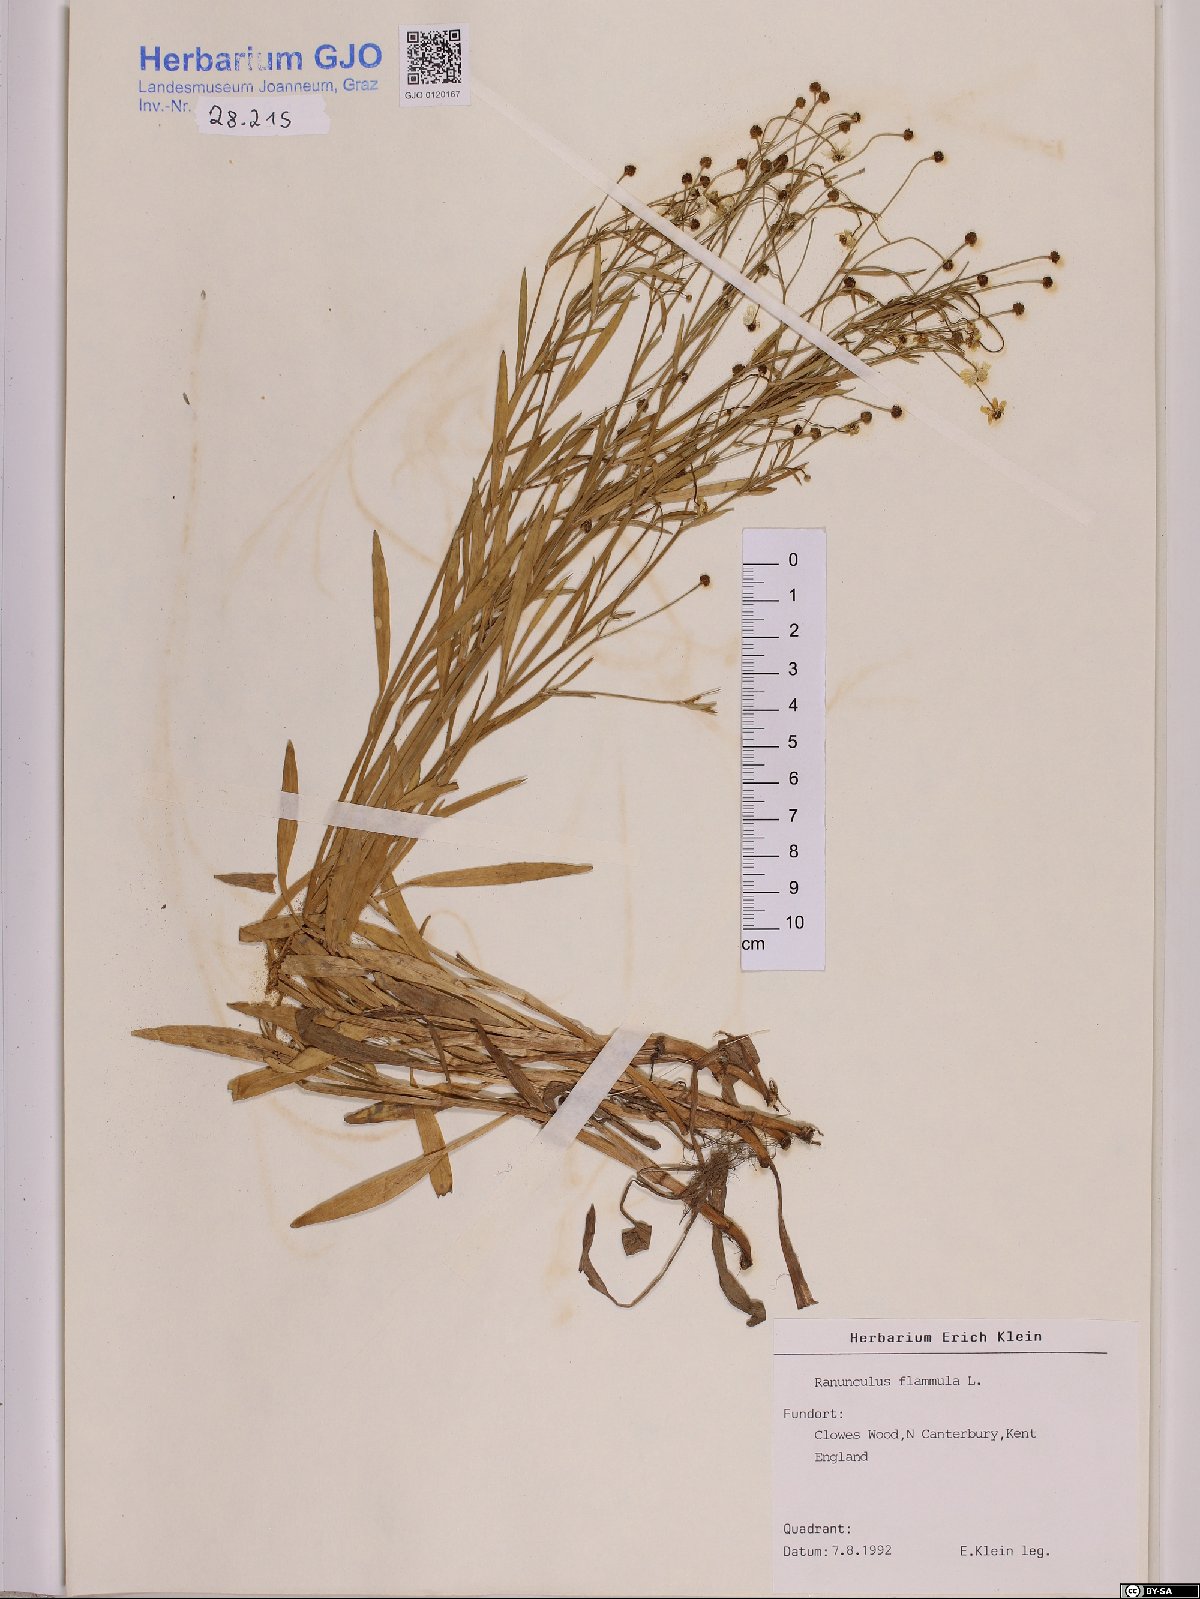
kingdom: Plantae
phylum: Tracheophyta
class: Magnoliopsida
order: Ranunculales
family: Ranunculaceae
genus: Ranunculus
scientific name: Ranunculus flammula
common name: Lesser spearwort
